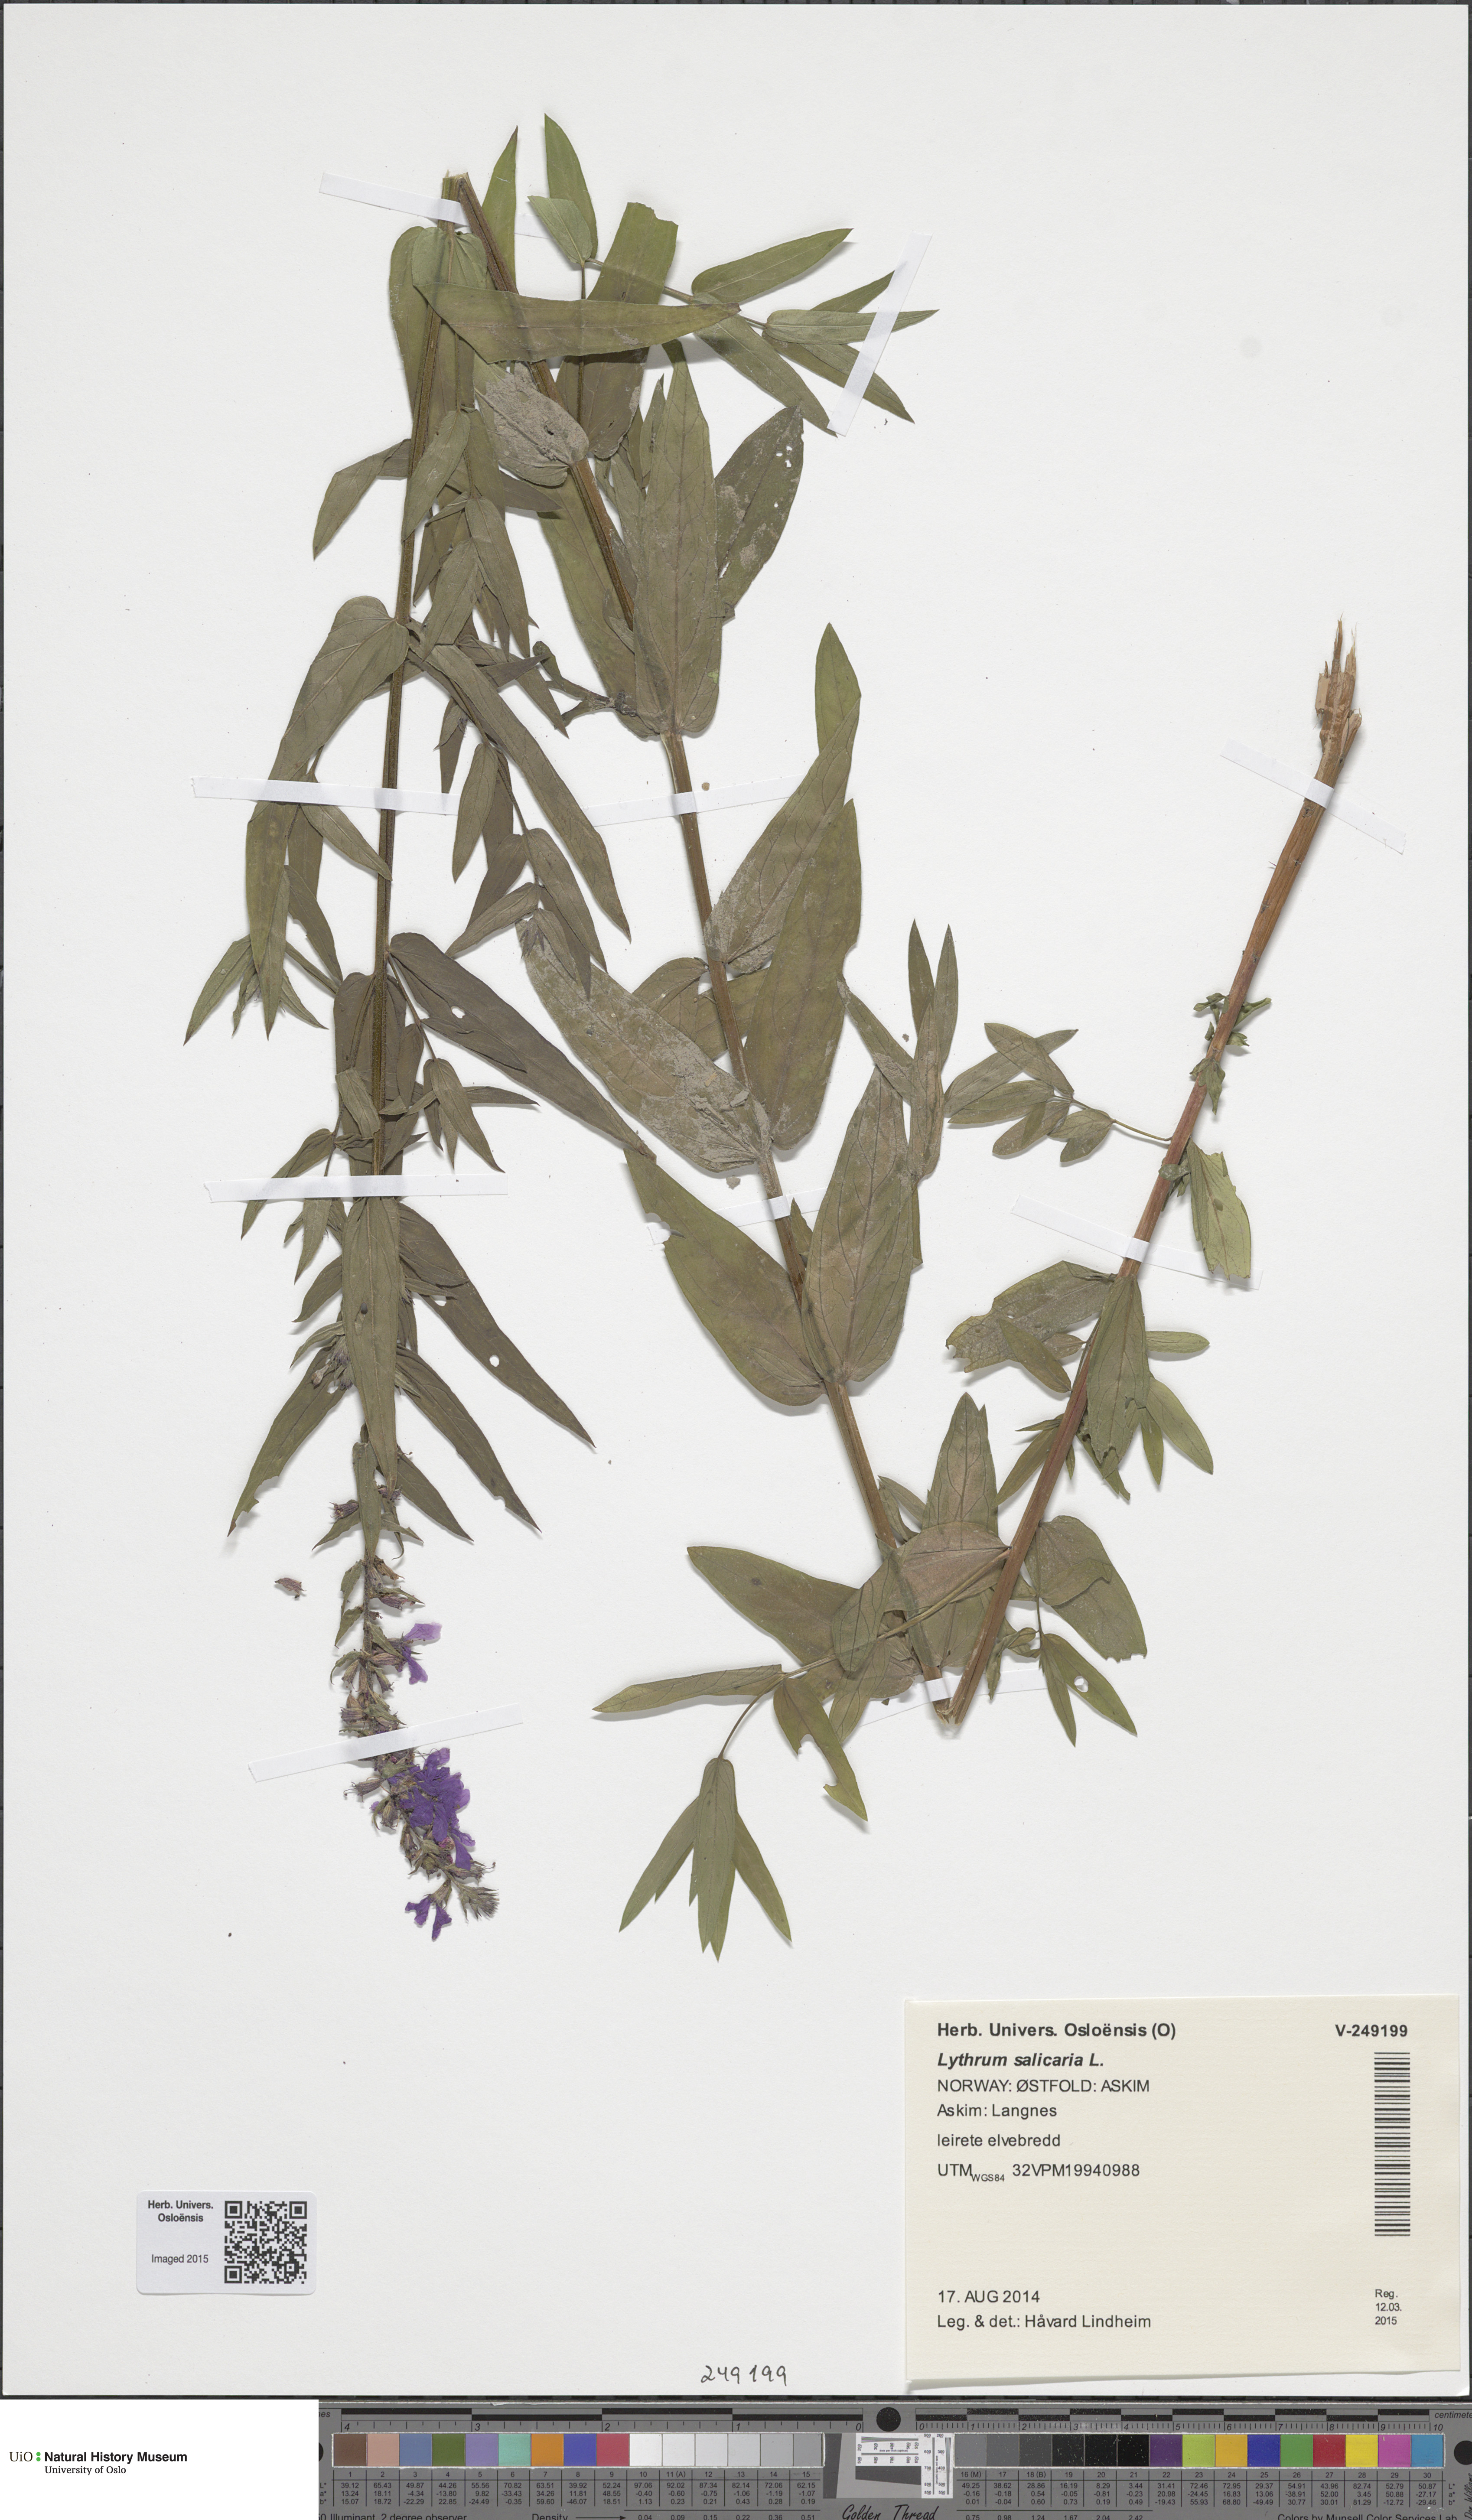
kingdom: Plantae
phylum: Tracheophyta
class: Magnoliopsida
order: Myrtales
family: Lythraceae
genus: Lythrum
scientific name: Lythrum salicaria
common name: Purple loosestrife
